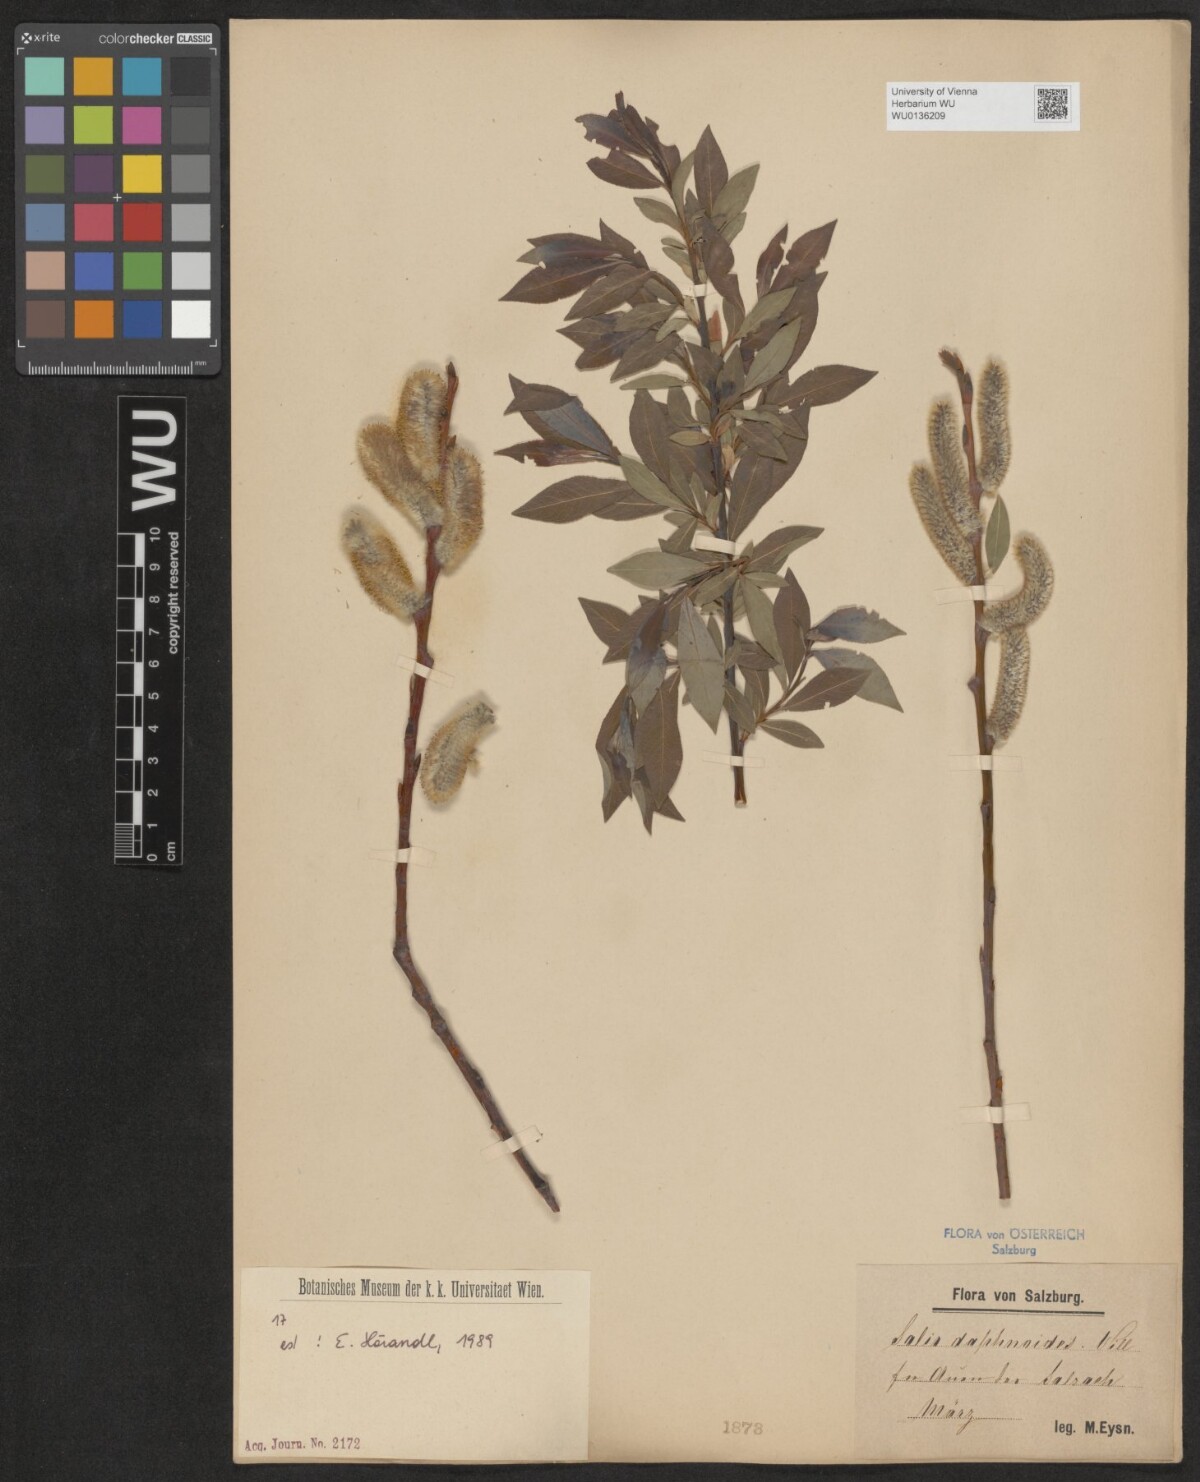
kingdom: Plantae
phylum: Tracheophyta
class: Magnoliopsida
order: Malpighiales
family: Salicaceae
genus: Salix
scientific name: Salix daphnoides
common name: European violet-willow
